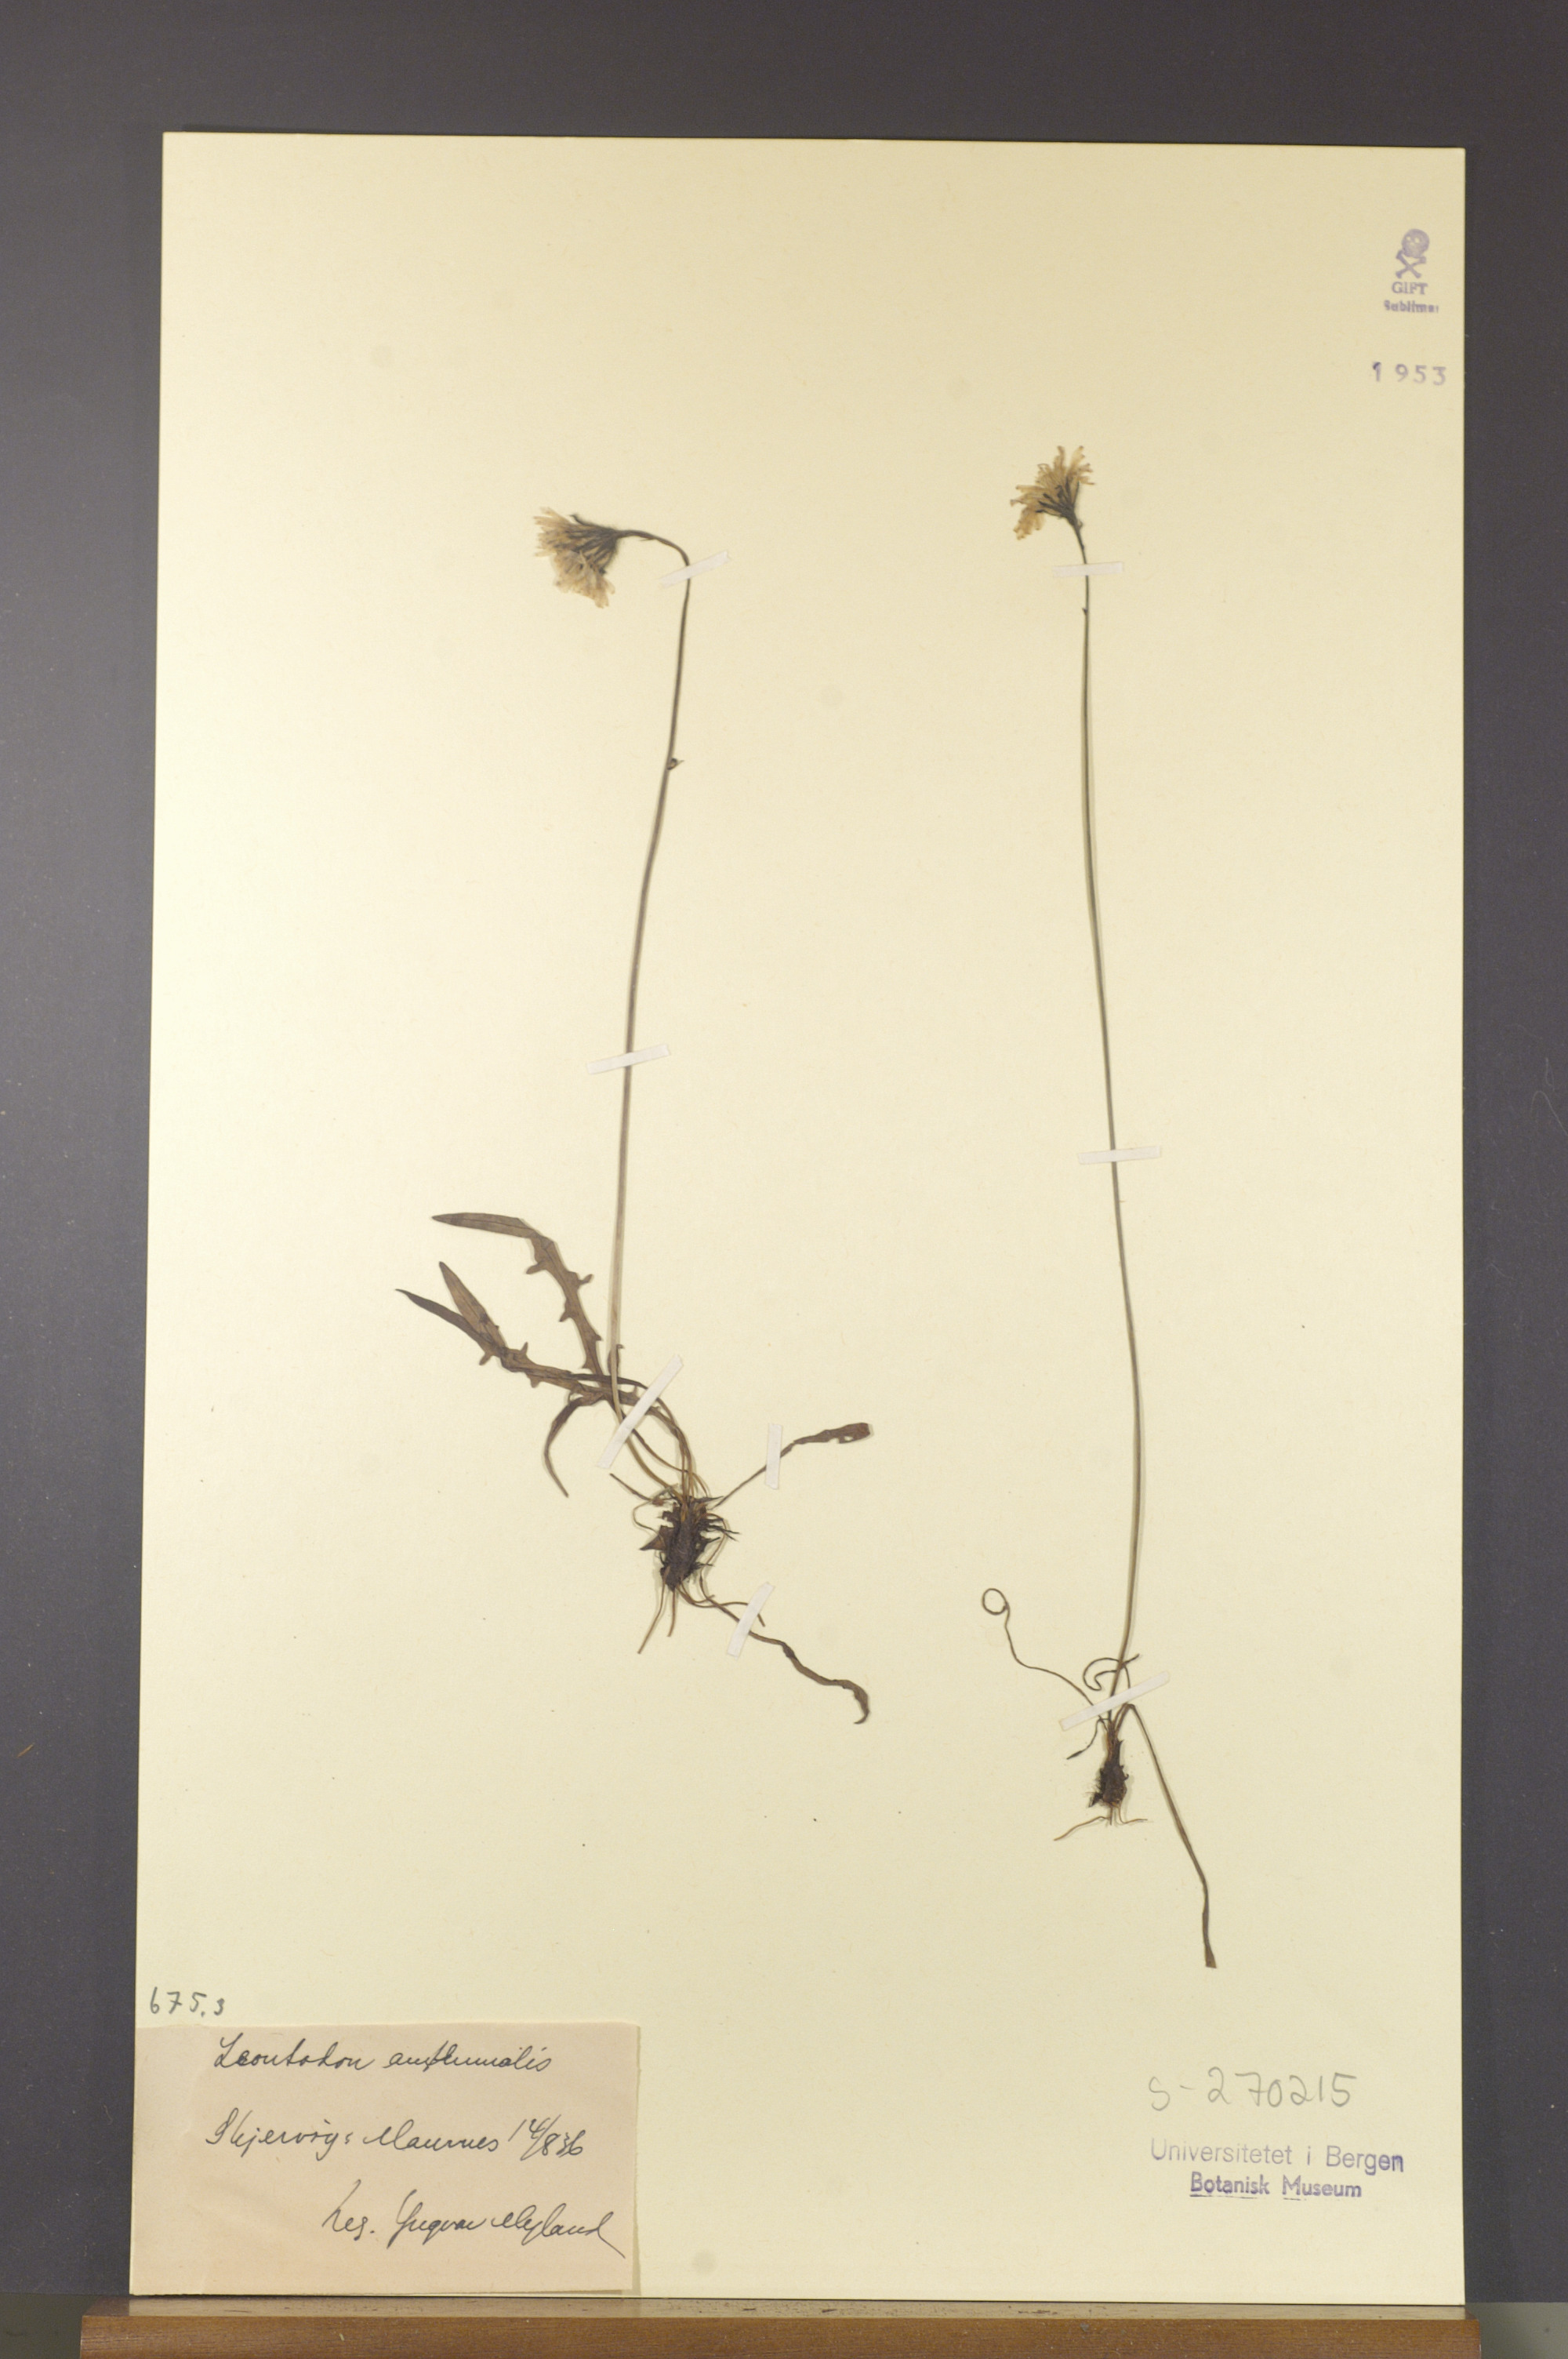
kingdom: Plantae
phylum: Tracheophyta
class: Magnoliopsida
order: Asterales
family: Asteraceae
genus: Scorzoneroides
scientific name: Scorzoneroides autumnalis
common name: Autumn hawkbit
